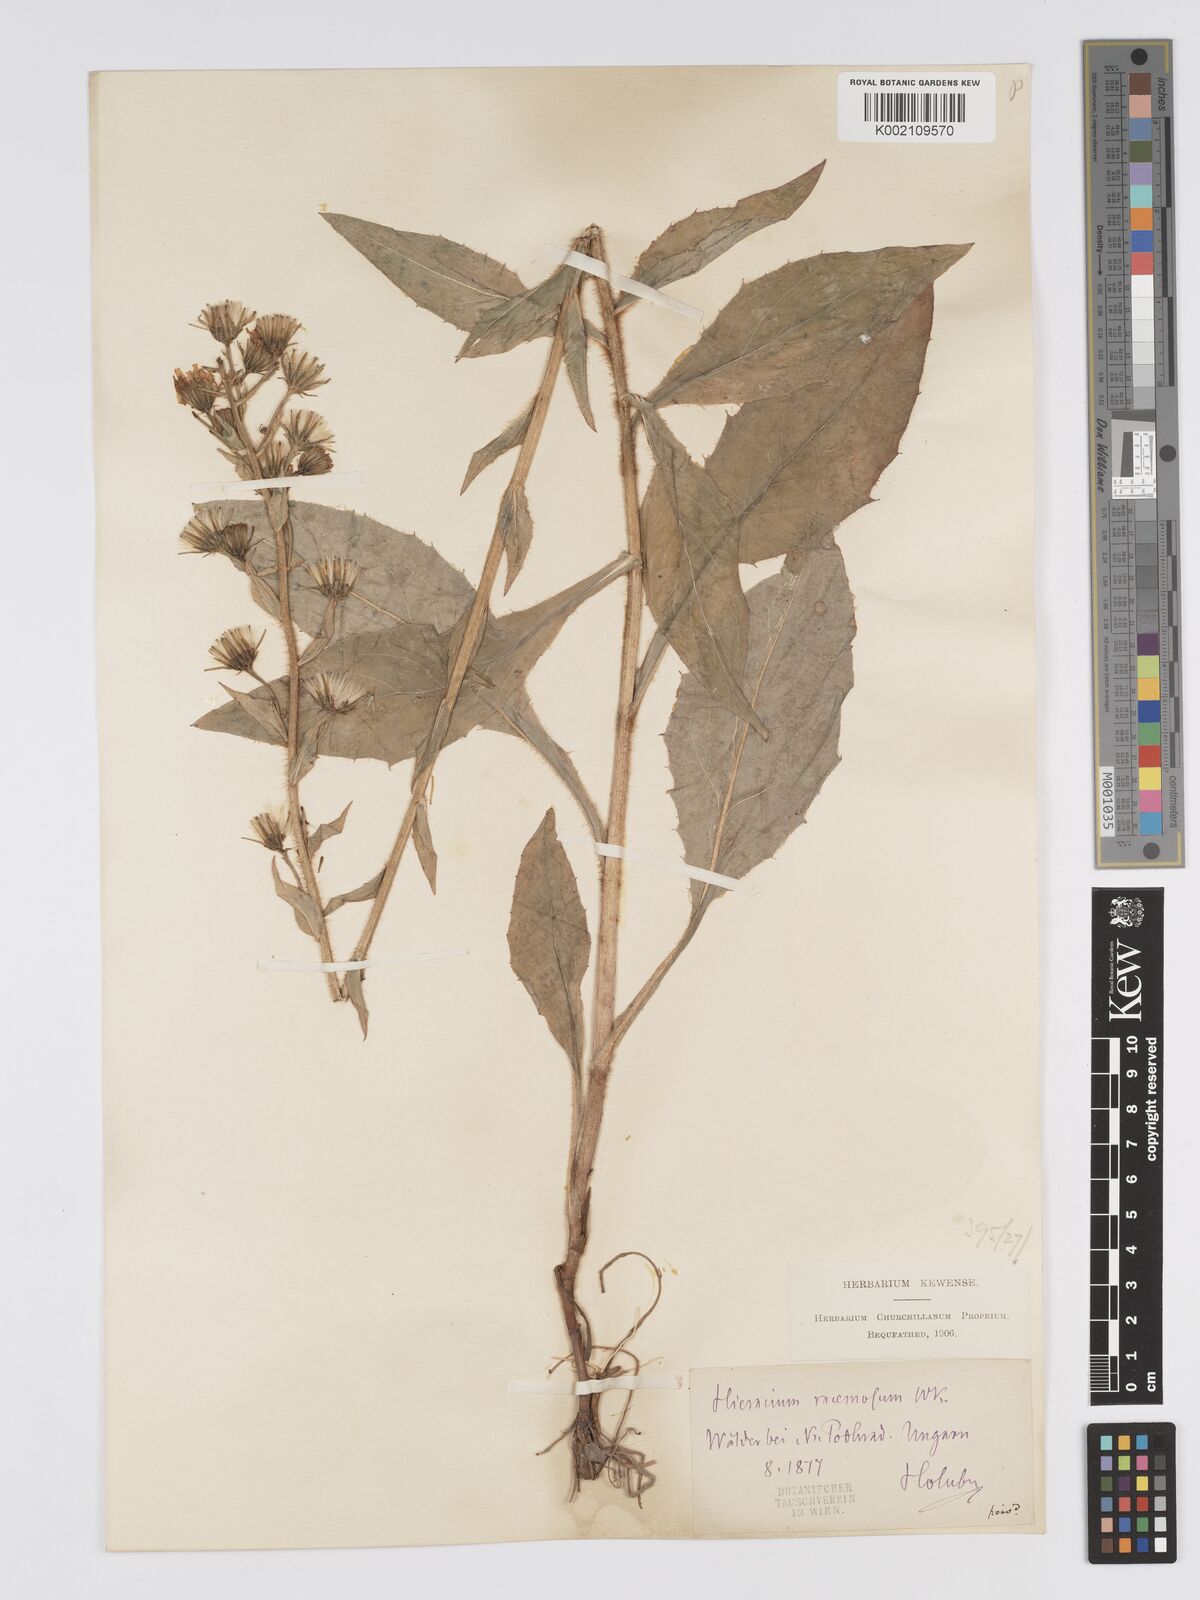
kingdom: Plantae
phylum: Tracheophyta
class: Magnoliopsida
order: Asterales
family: Asteraceae
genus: Hieracium
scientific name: Hieracium racemosum
